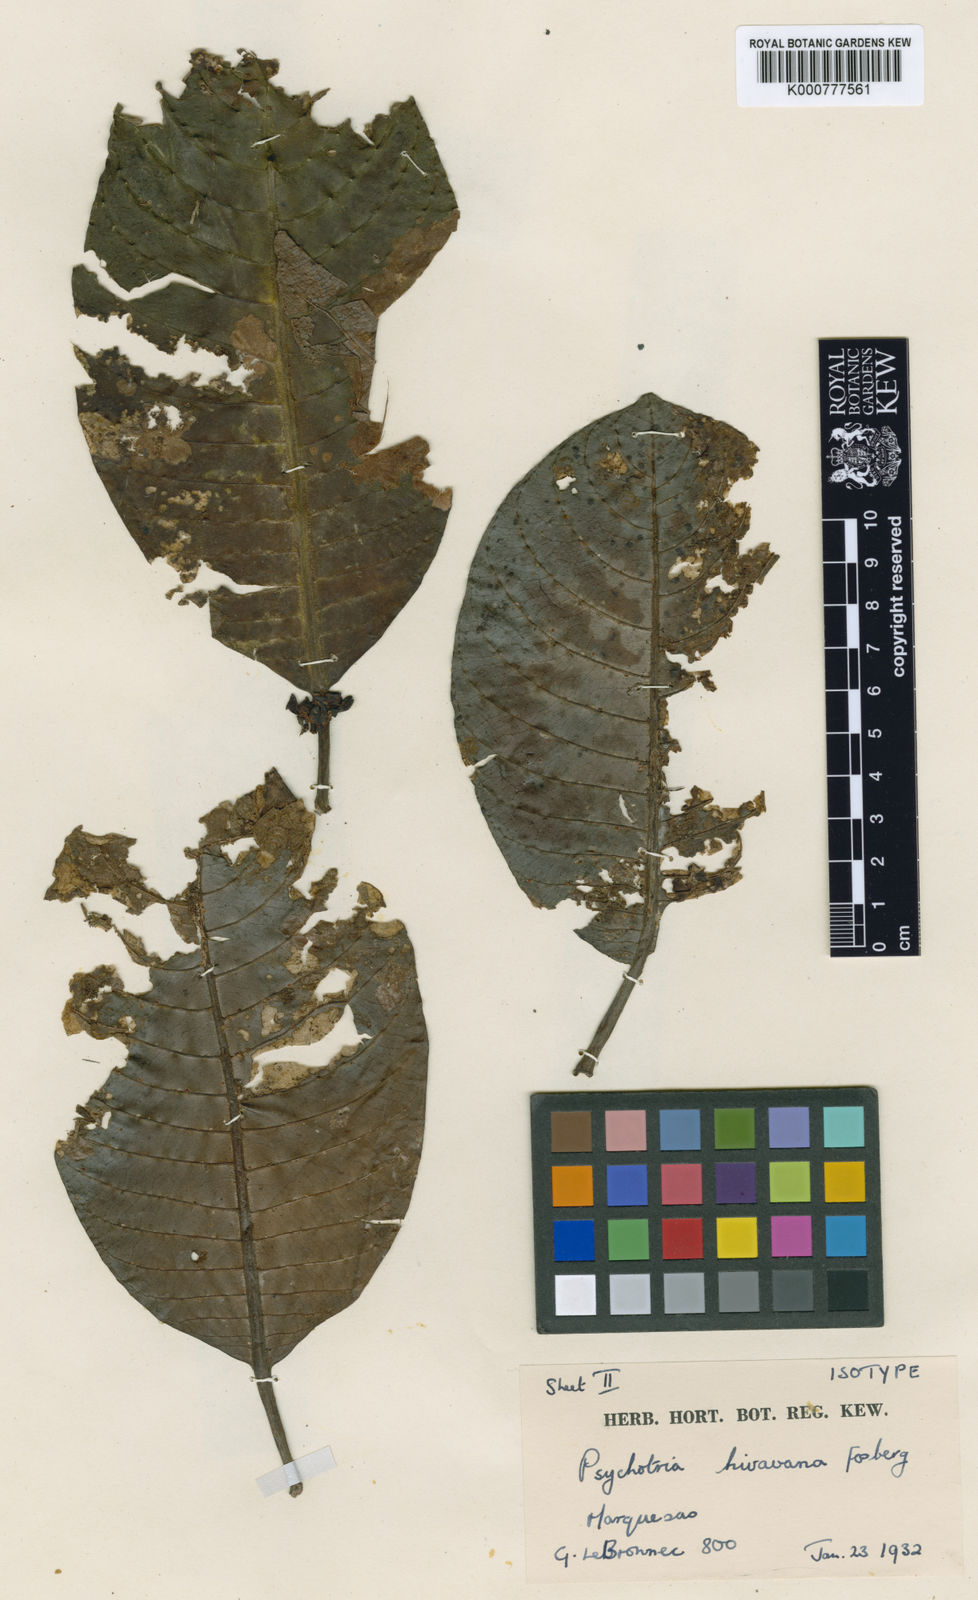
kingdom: Plantae
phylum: Tracheophyta
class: Magnoliopsida
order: Gentianales
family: Rubiaceae
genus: Psychotria
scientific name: Psychotria hivaoana
